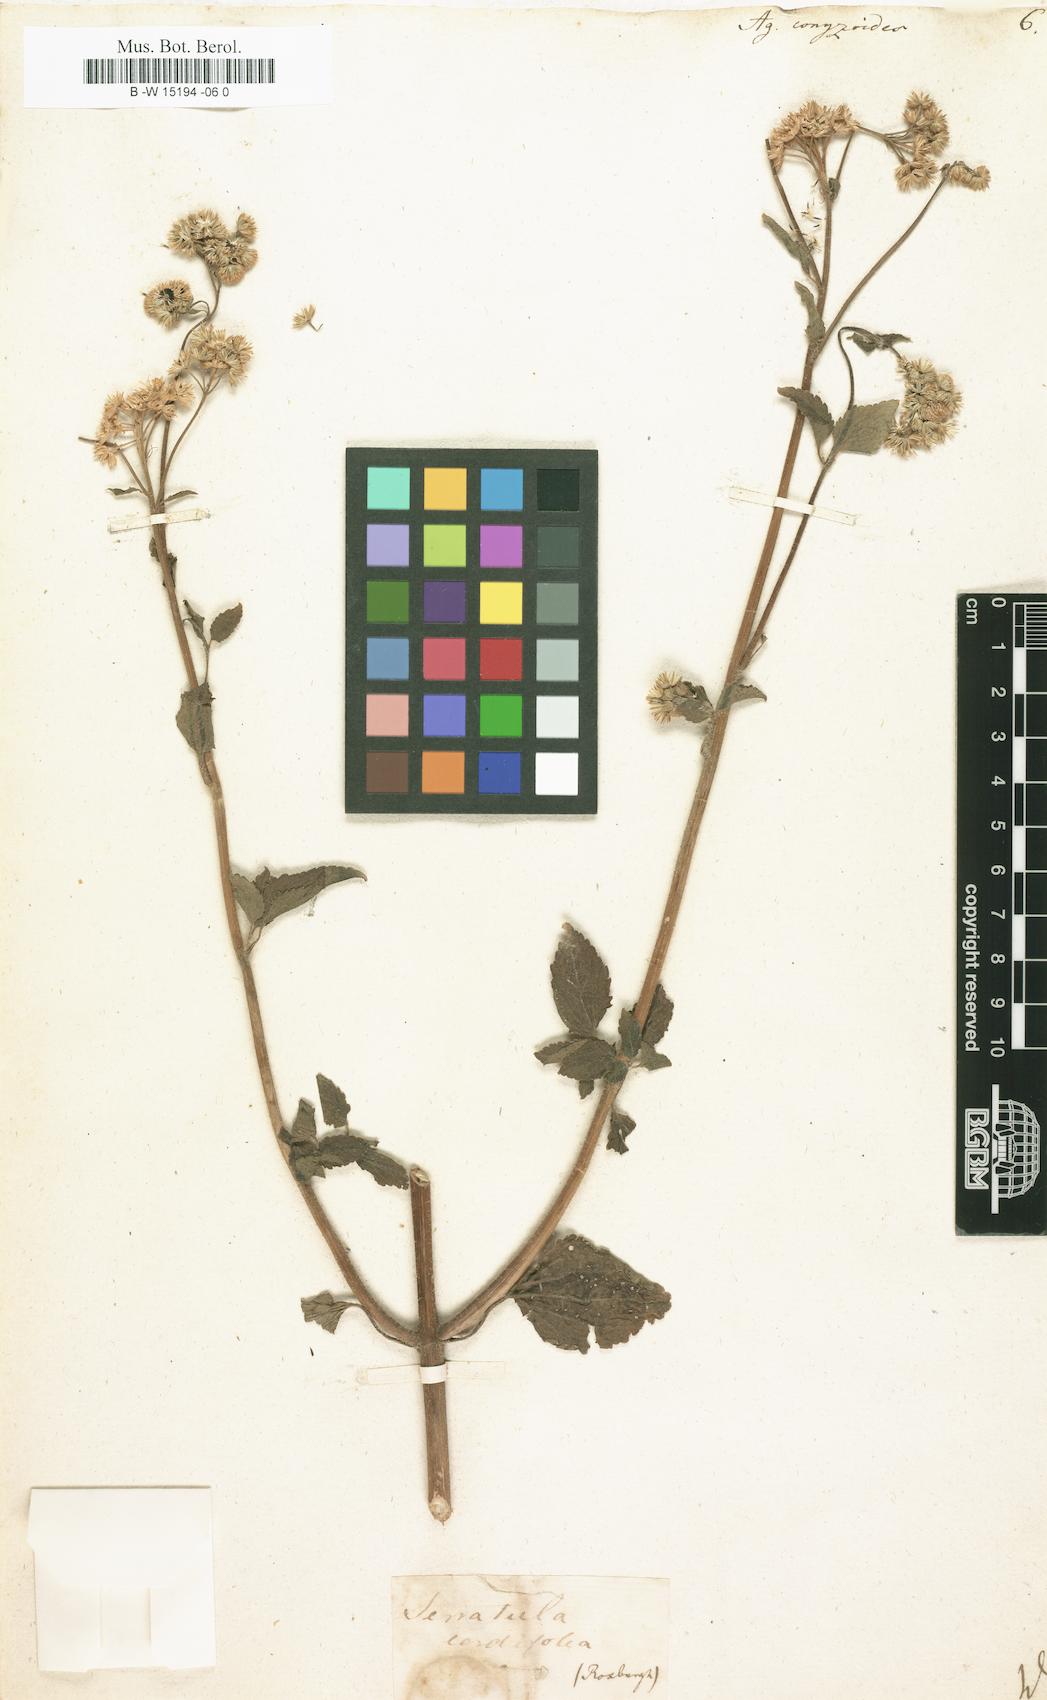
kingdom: Plantae
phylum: Tracheophyta
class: Magnoliopsida
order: Asterales
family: Asteraceae
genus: Ageratum
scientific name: Ageratum conyzoides
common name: Tropical whiteweed
